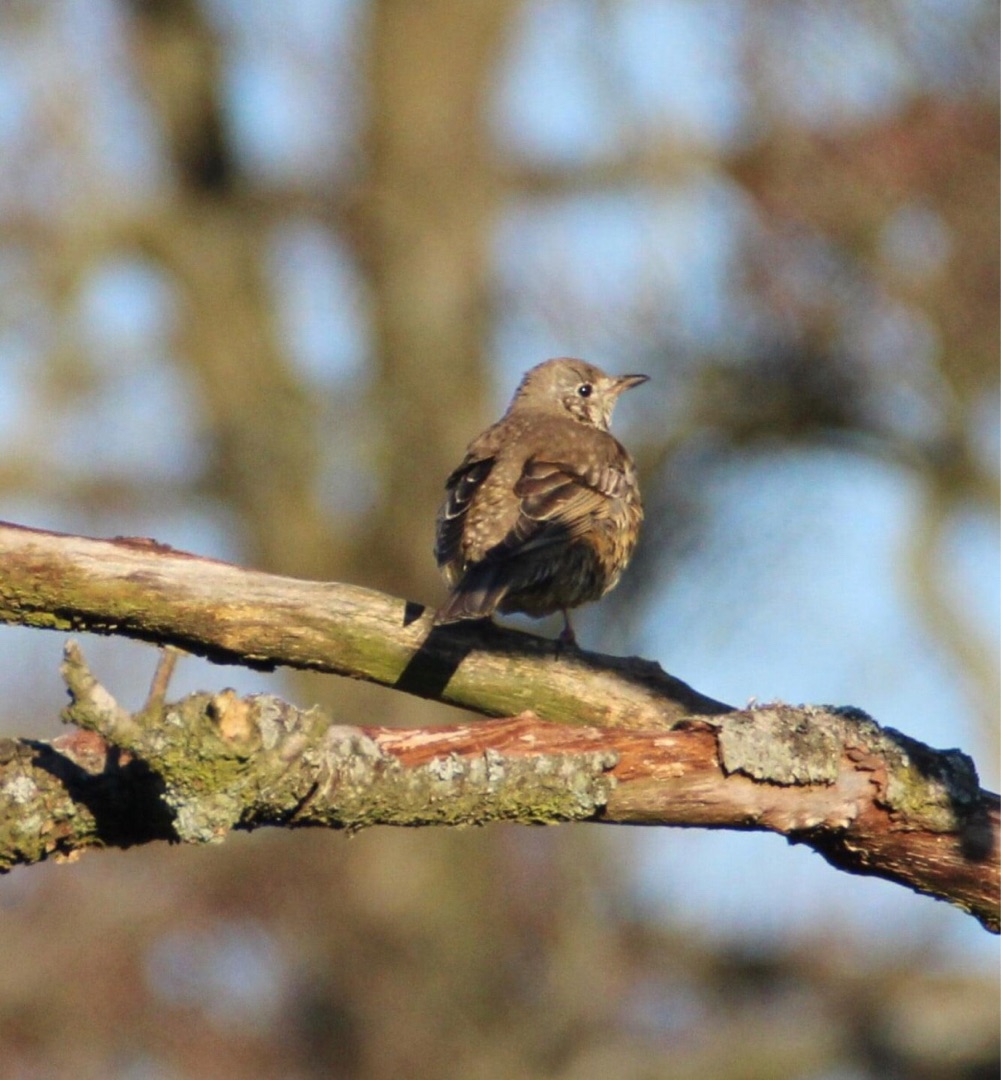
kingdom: Animalia
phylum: Chordata
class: Aves
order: Passeriformes
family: Turdidae
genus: Turdus
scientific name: Turdus viscivorus
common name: Misteldrossel
